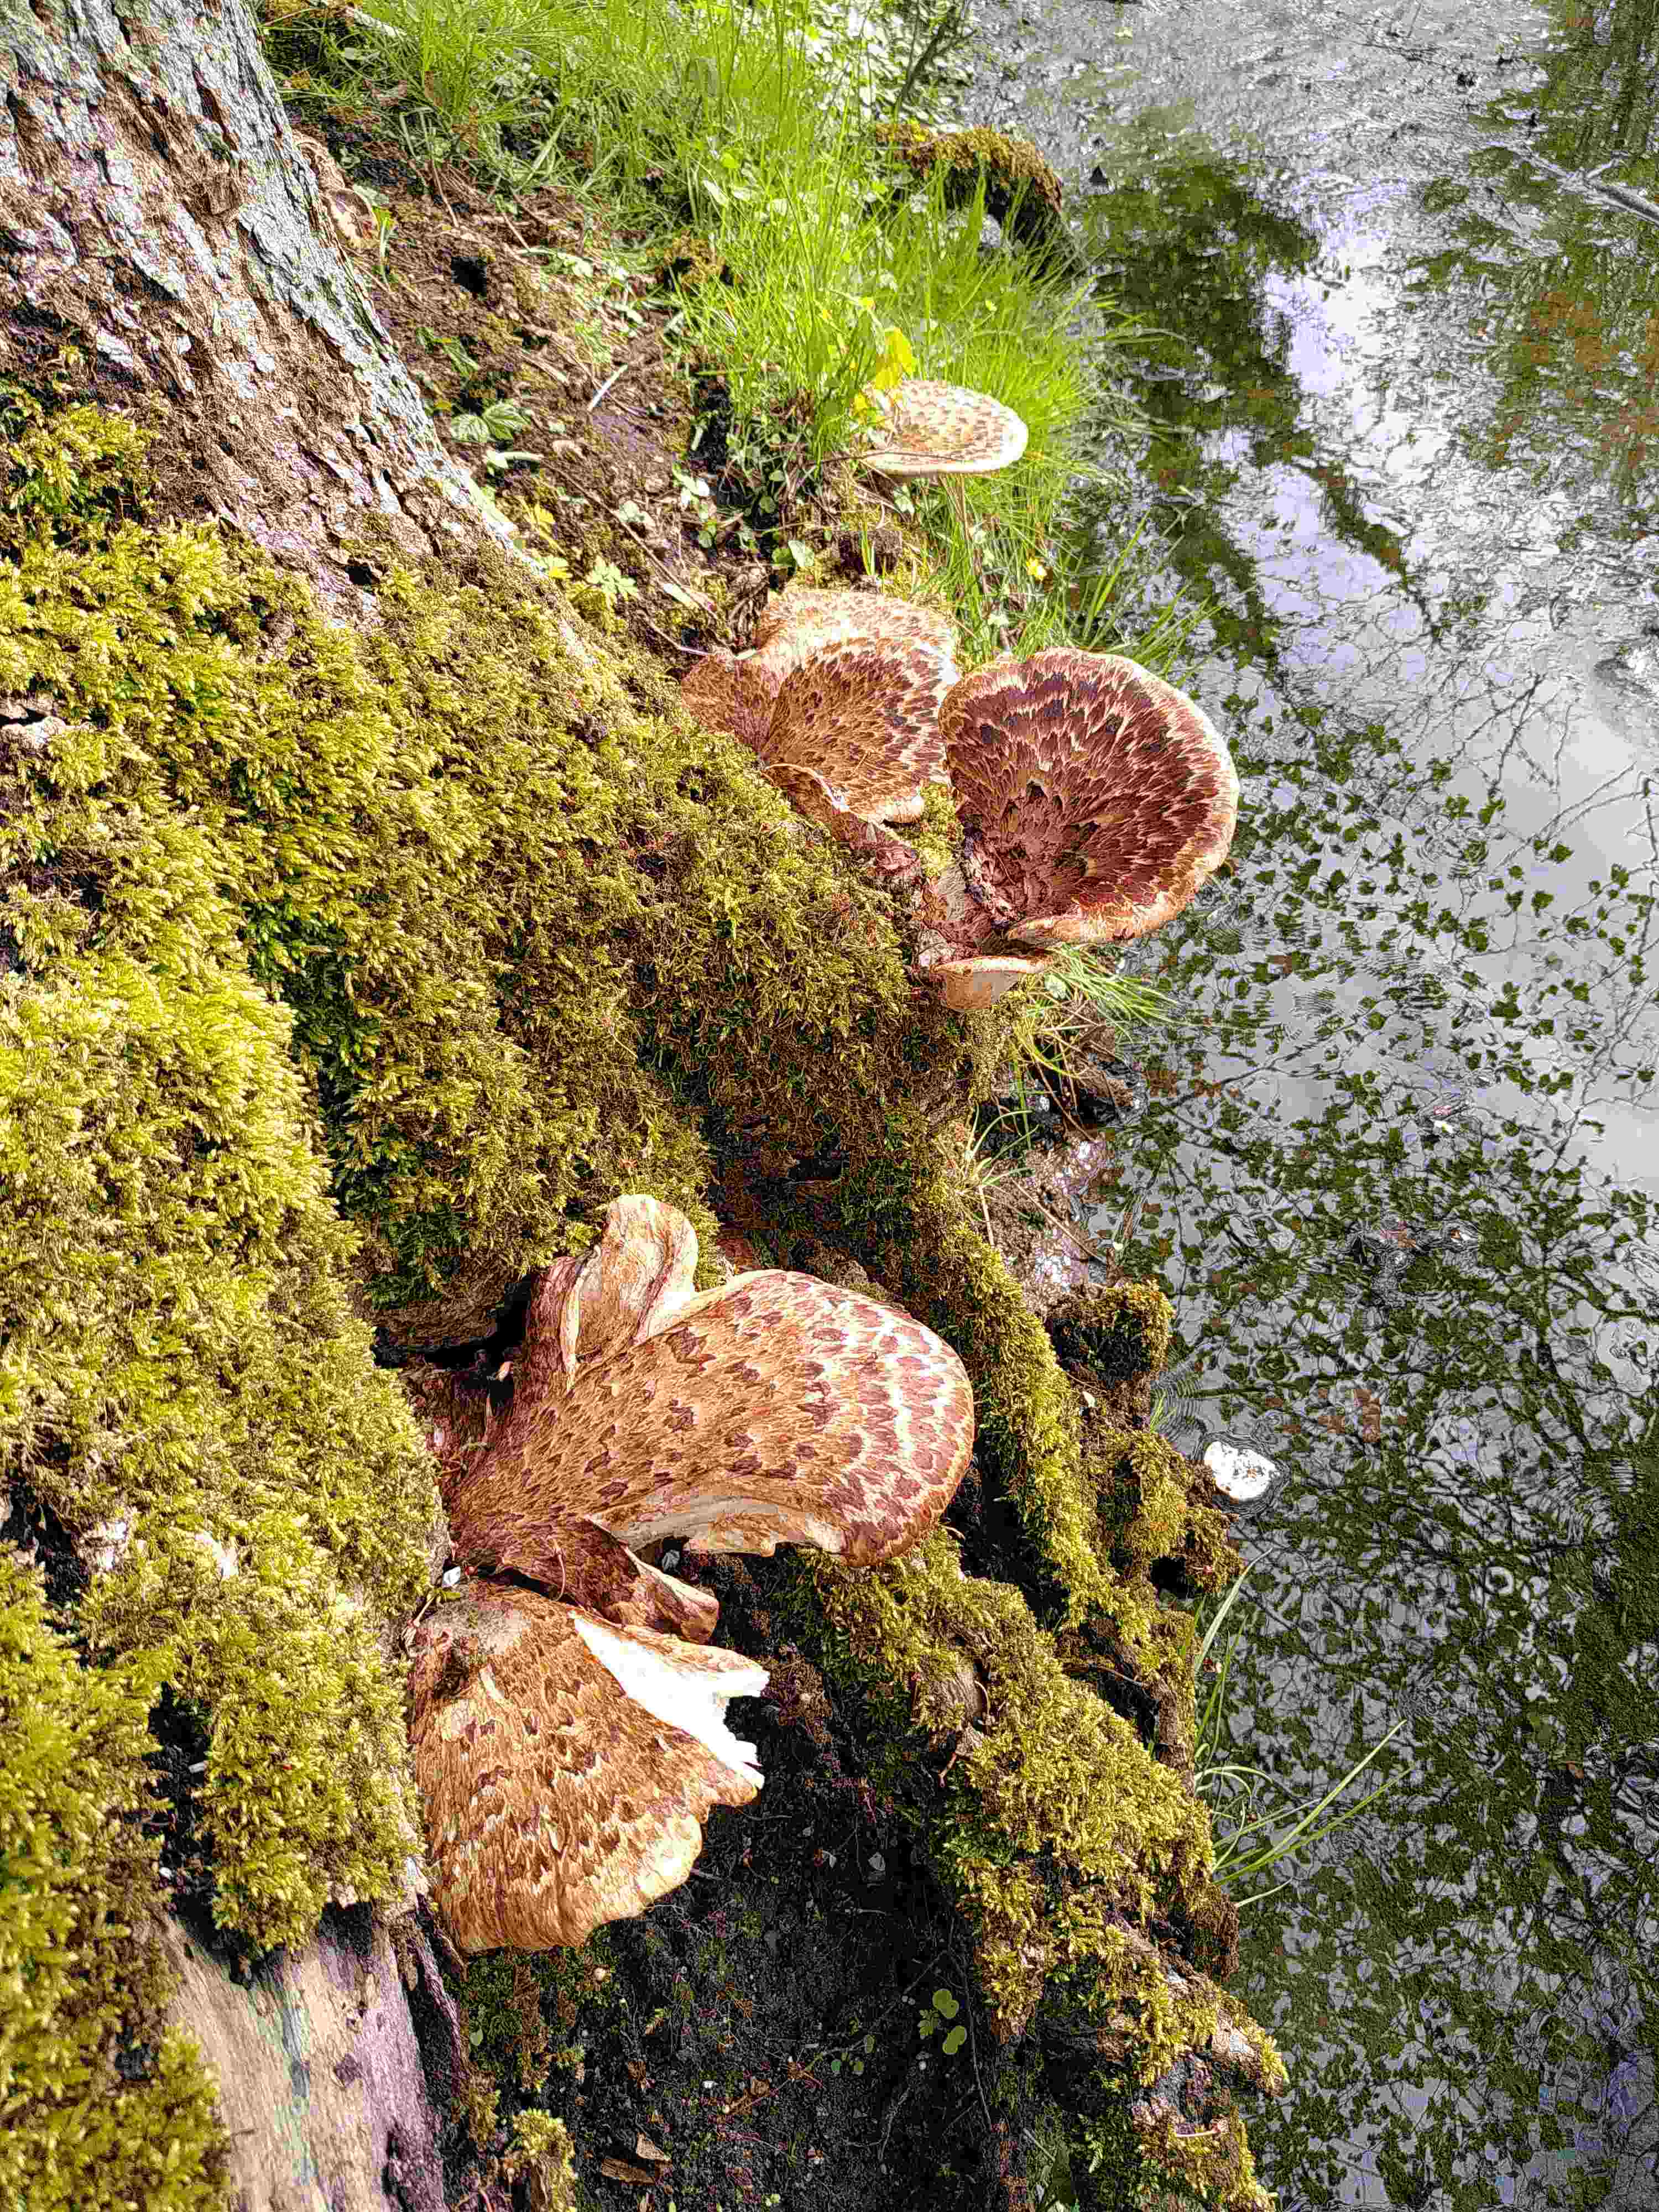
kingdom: Fungi
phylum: Basidiomycota
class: Agaricomycetes
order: Polyporales
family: Polyporaceae
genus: Cerioporus
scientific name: Cerioporus squamosus
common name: skællet stilkporesvamp
